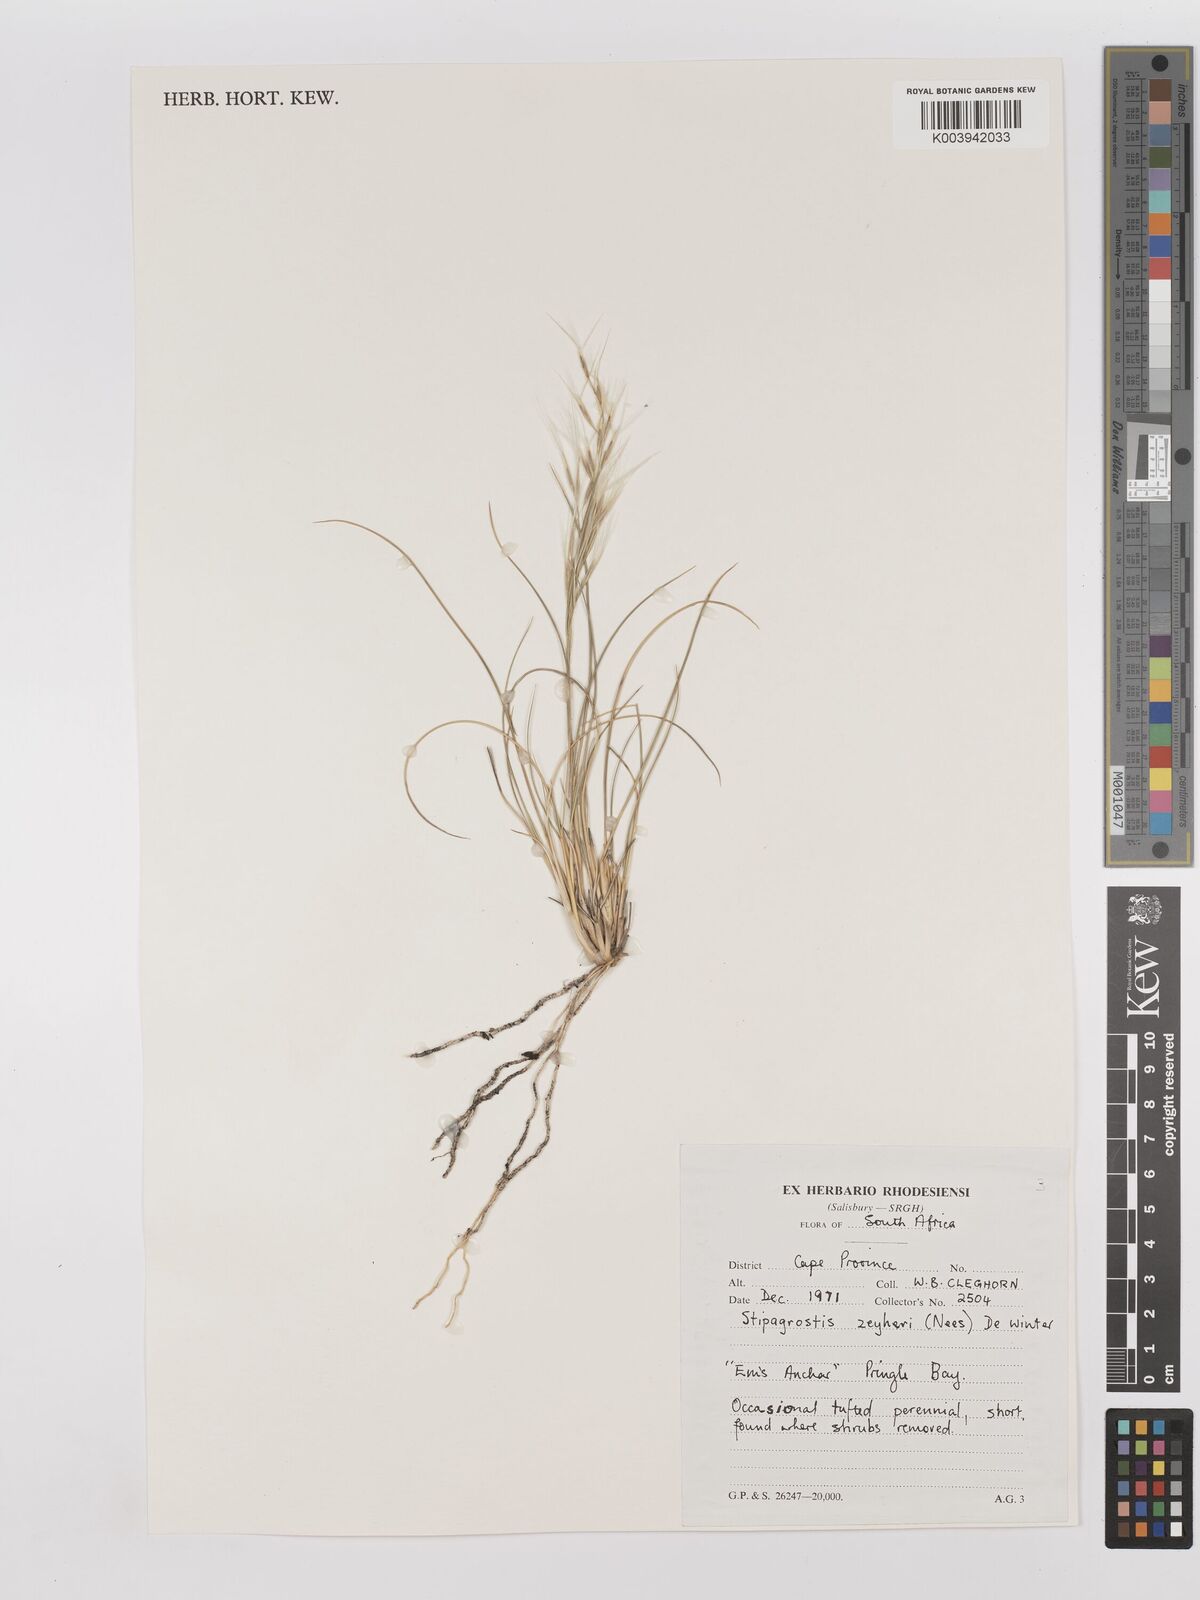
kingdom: Plantae
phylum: Tracheophyta
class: Liliopsida
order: Poales
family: Poaceae
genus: Stipagrostis
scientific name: Stipagrostis zeyheri
